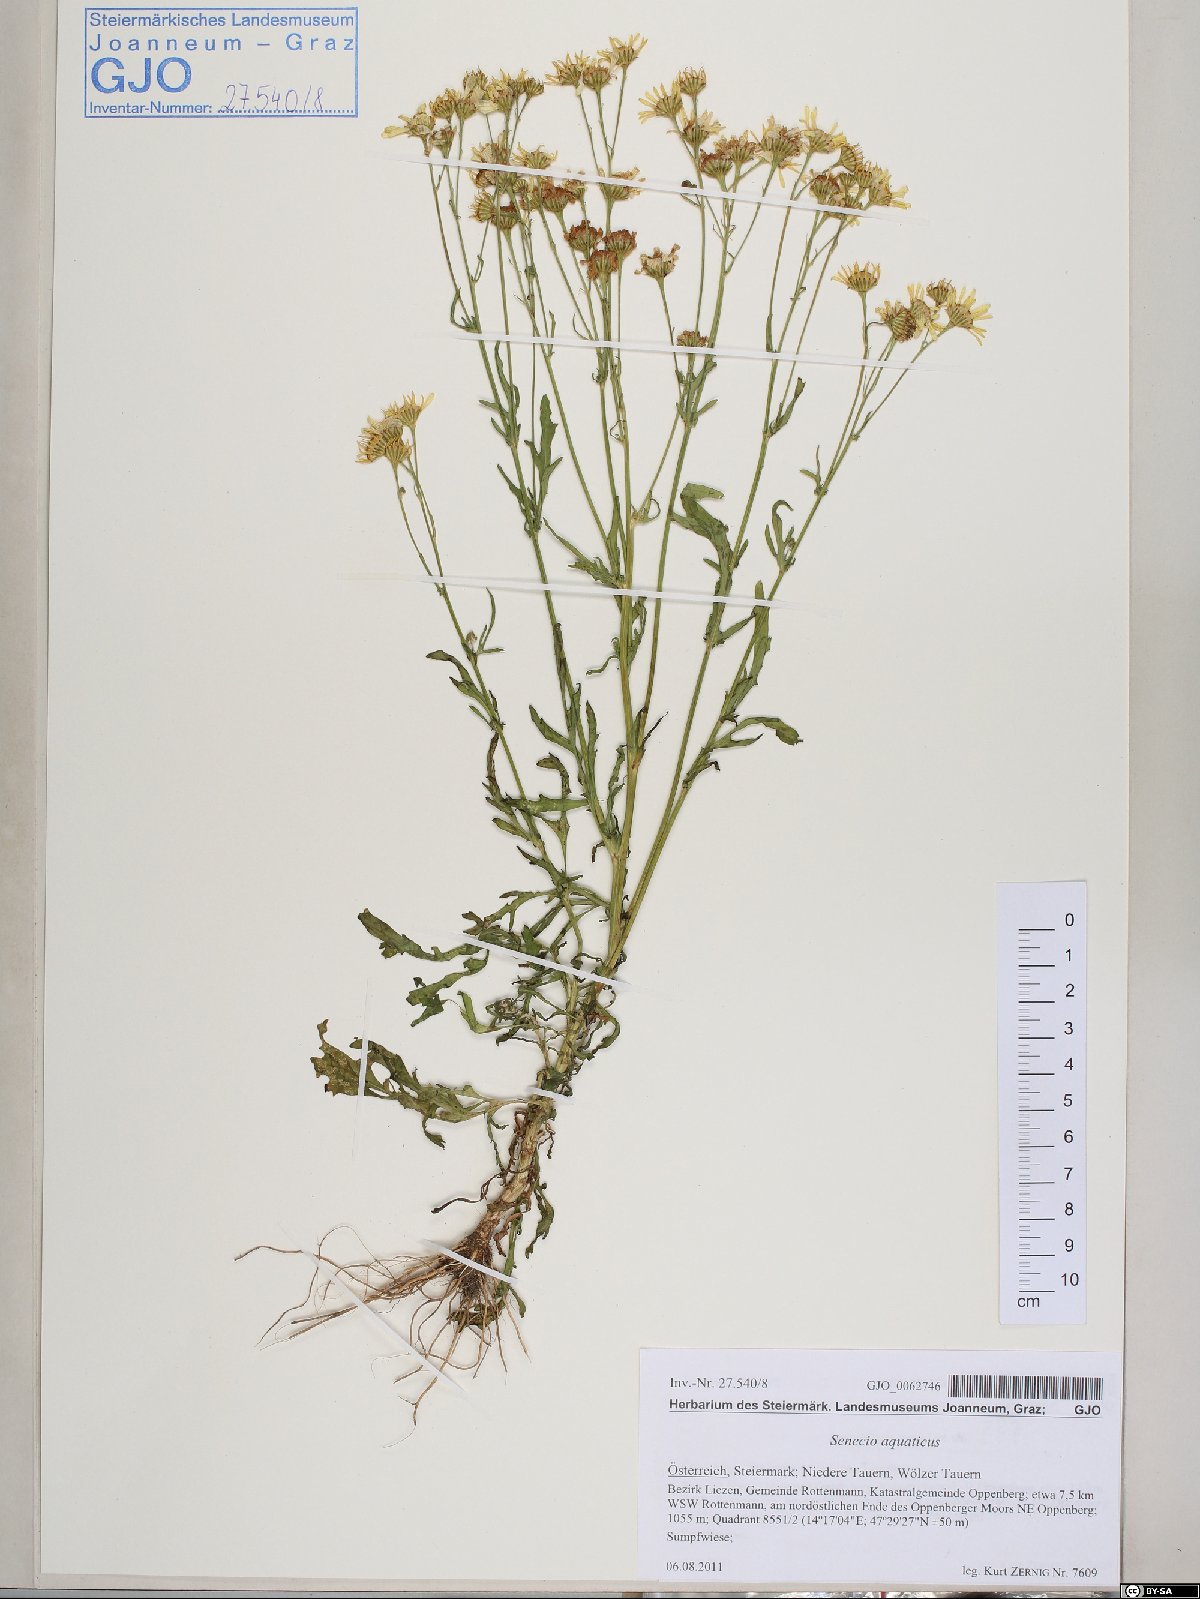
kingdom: Plantae
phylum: Tracheophyta
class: Magnoliopsida
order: Asterales
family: Asteraceae
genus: Jacobaea
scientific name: Jacobaea aquatica
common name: Water ragwort
